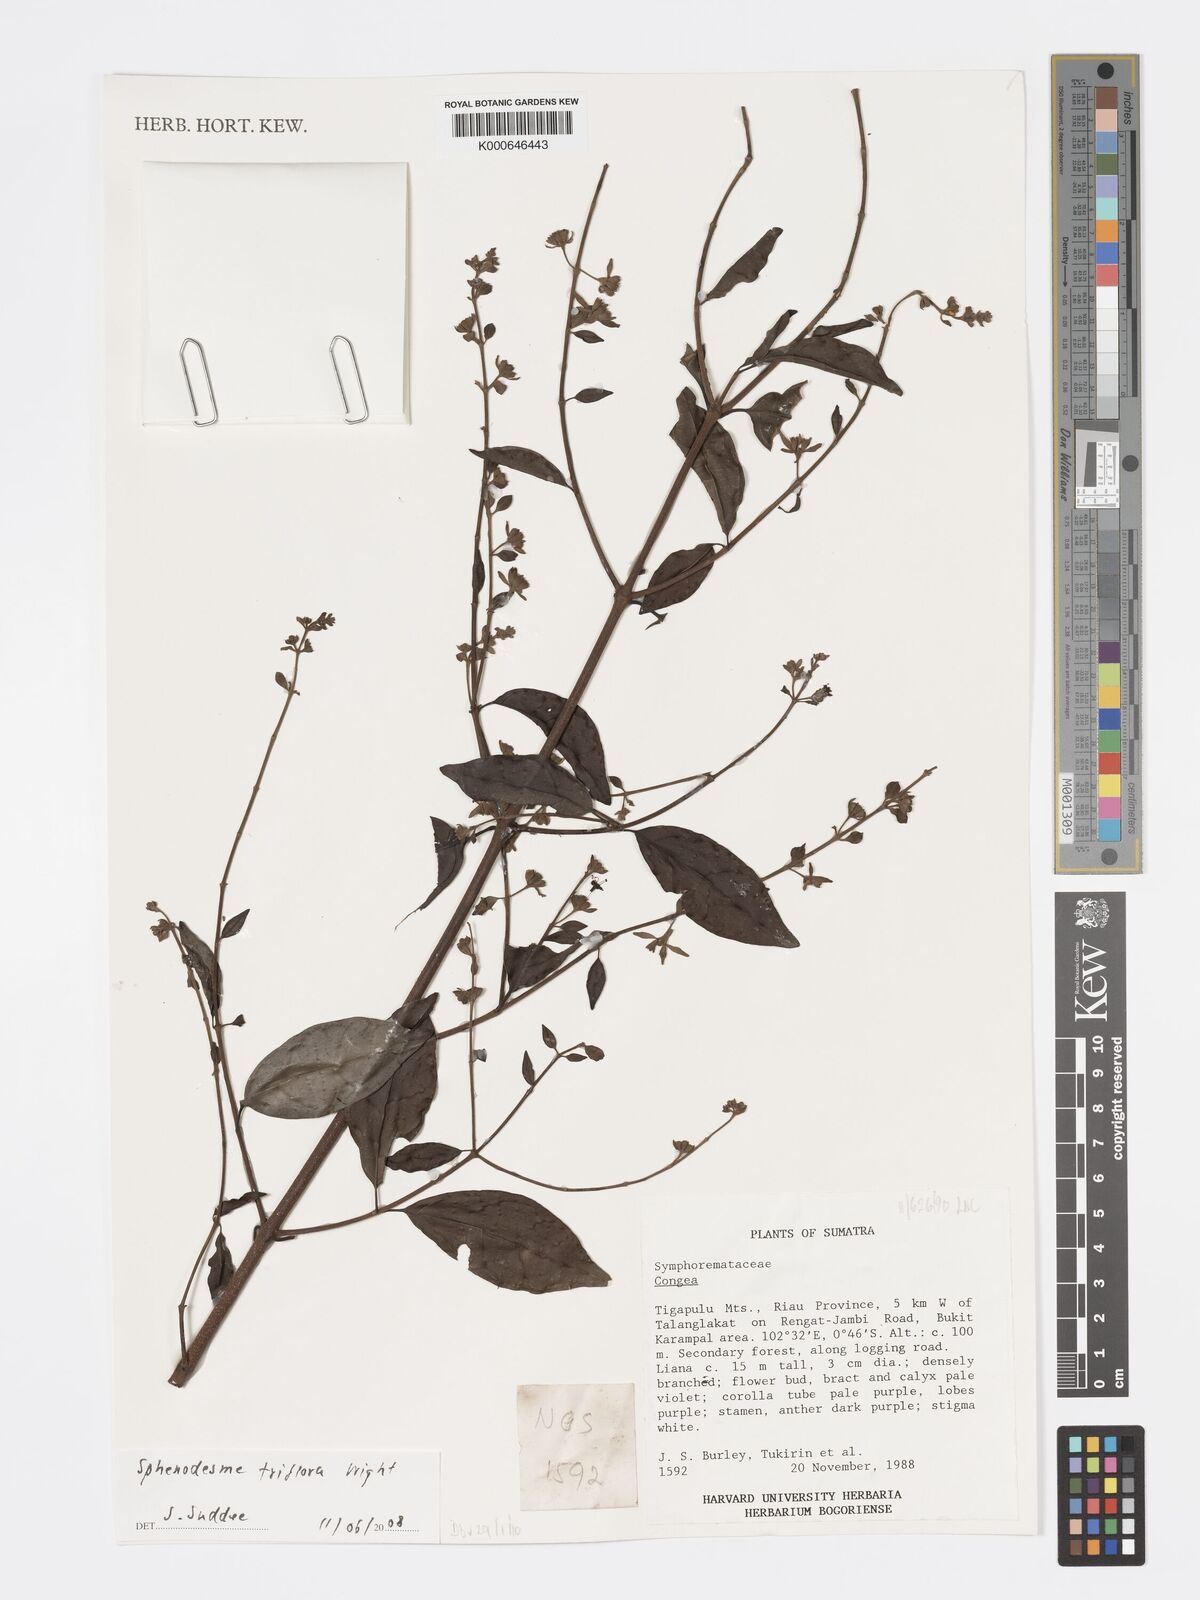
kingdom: Plantae
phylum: Tracheophyta
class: Magnoliopsida
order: Lamiales
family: Lamiaceae
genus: Sphenodesme
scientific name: Sphenodesme triflora
